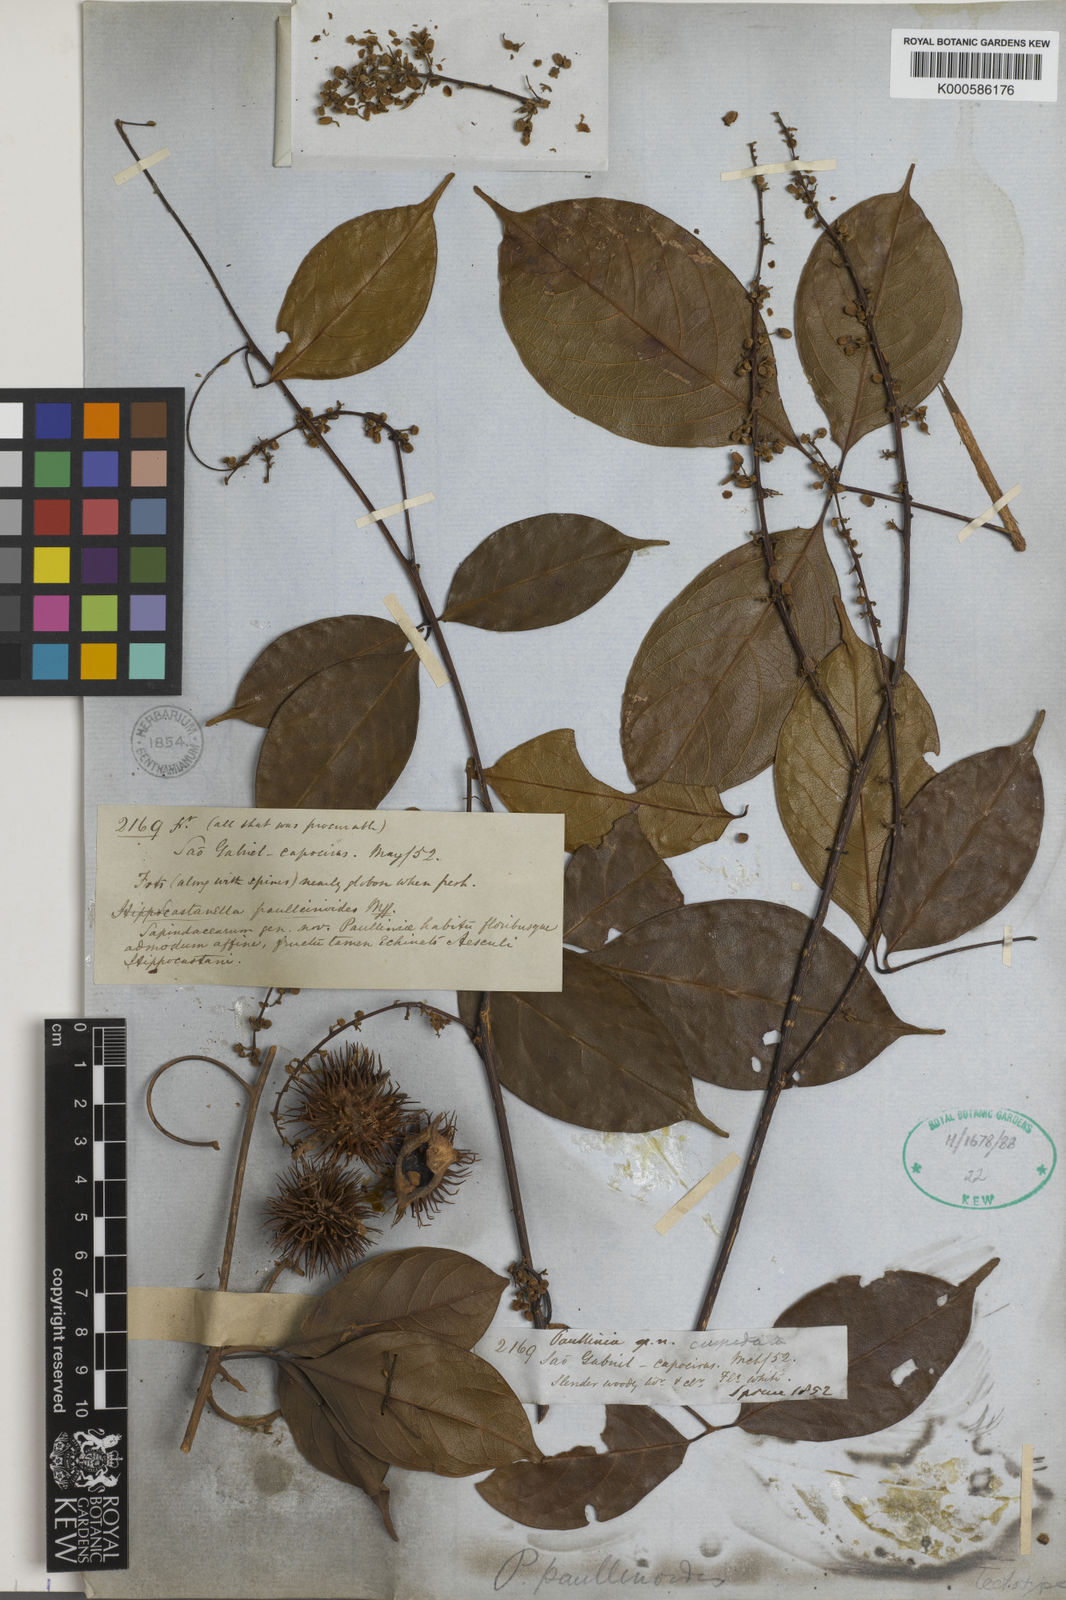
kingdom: Plantae
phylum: Tracheophyta
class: Magnoliopsida
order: Sapindales
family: Sapindaceae
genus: Paullinia
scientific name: Paullinia
